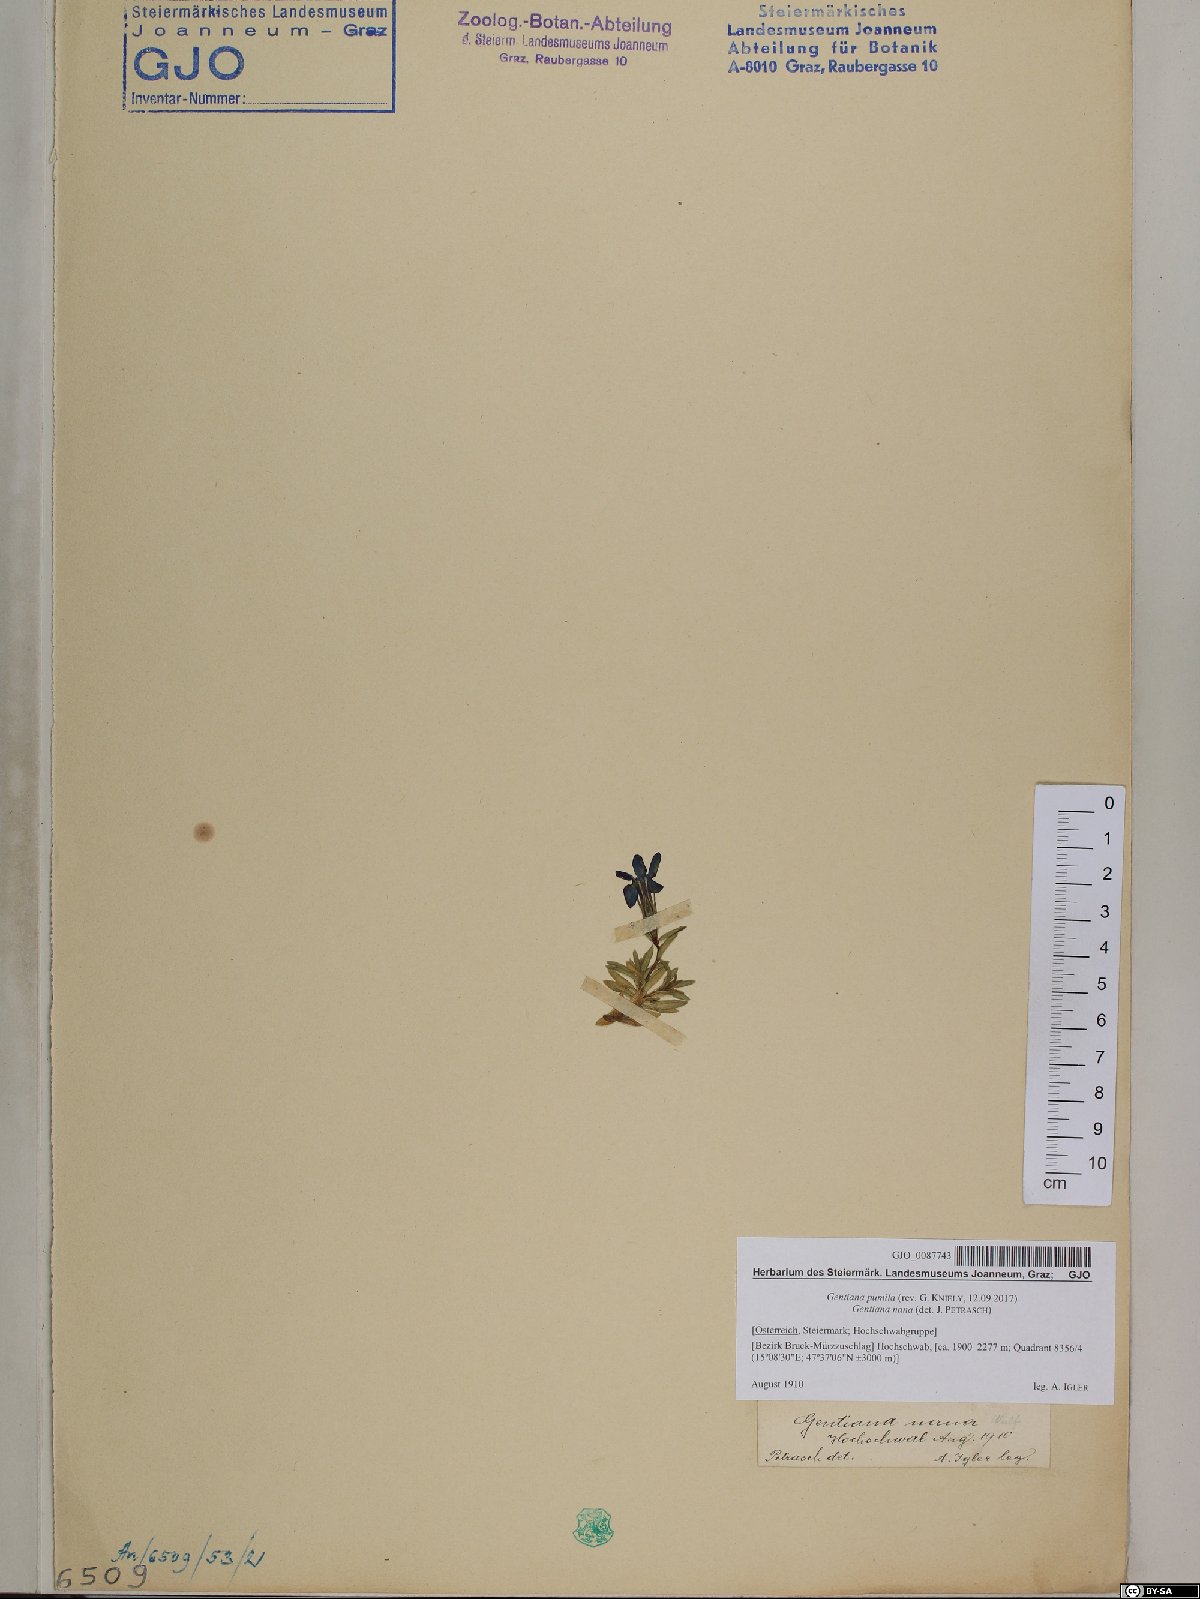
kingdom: Plantae
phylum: Tracheophyta
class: Magnoliopsida
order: Gentianales
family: Gentianaceae
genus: Gentiana
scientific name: Gentiana pumila
